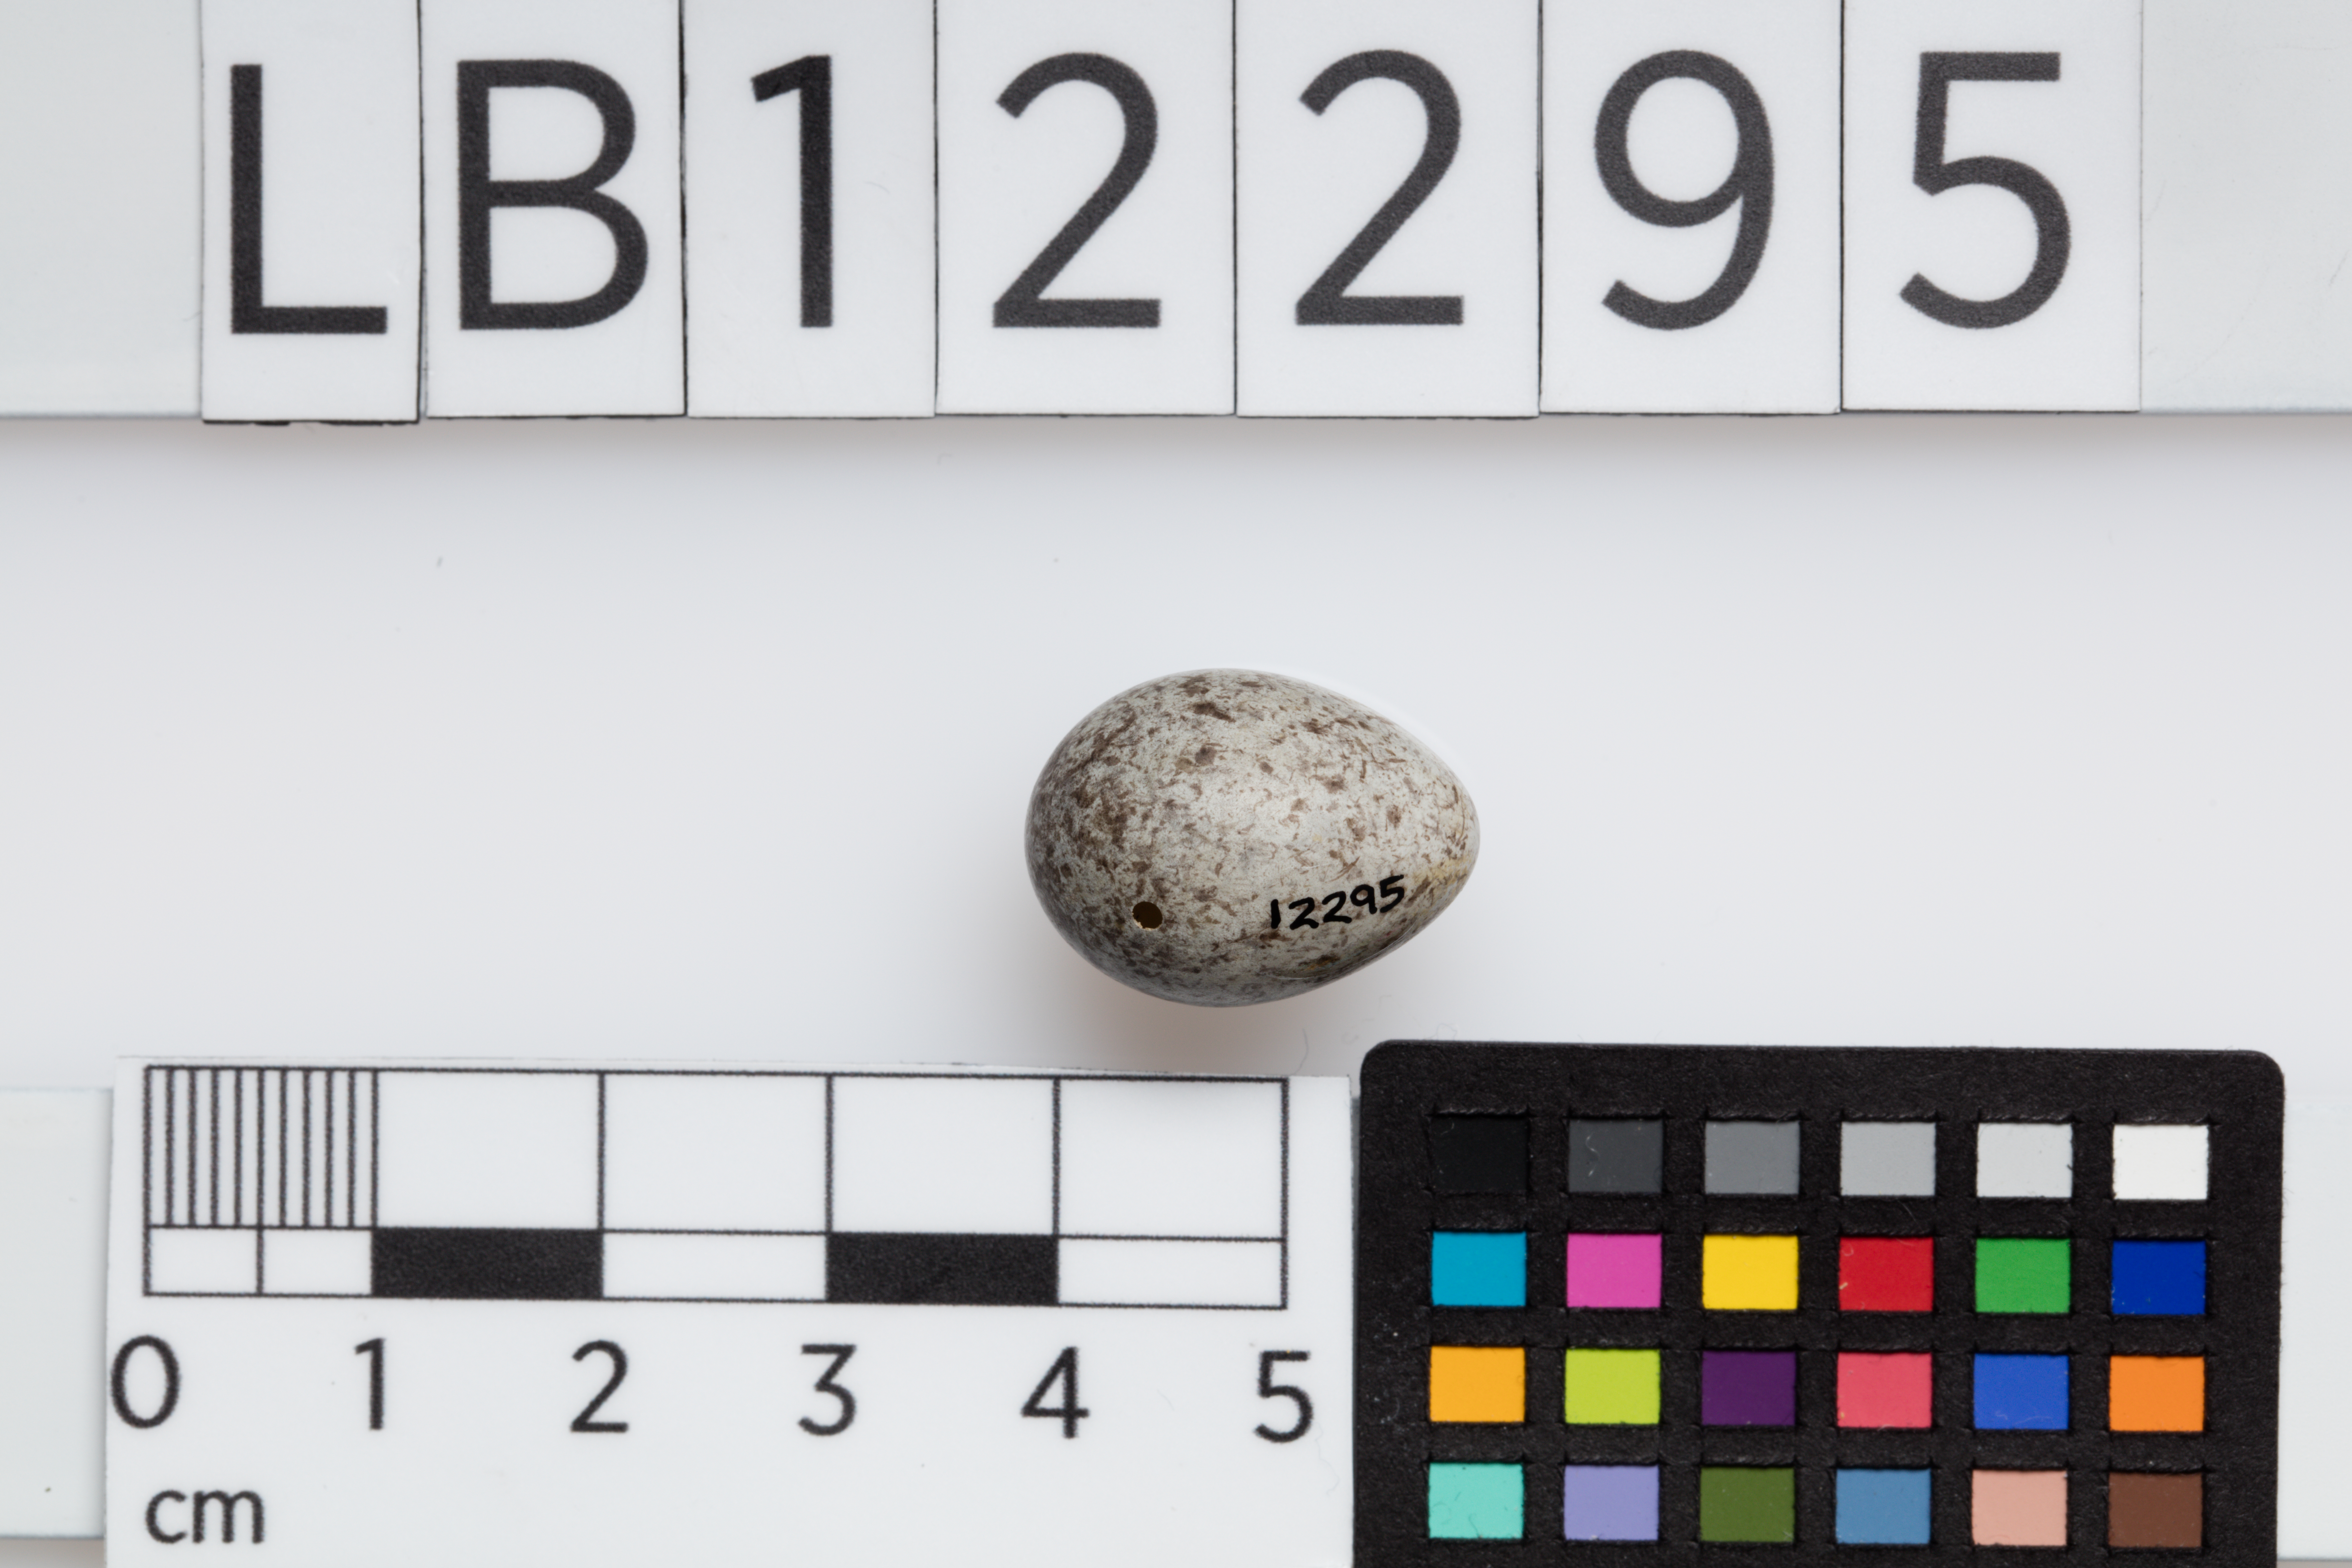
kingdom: Animalia
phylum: Chordata
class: Aves
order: Passeriformes
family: Motacillidae
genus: Anthus
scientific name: Anthus trivialis
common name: Tree pipit
